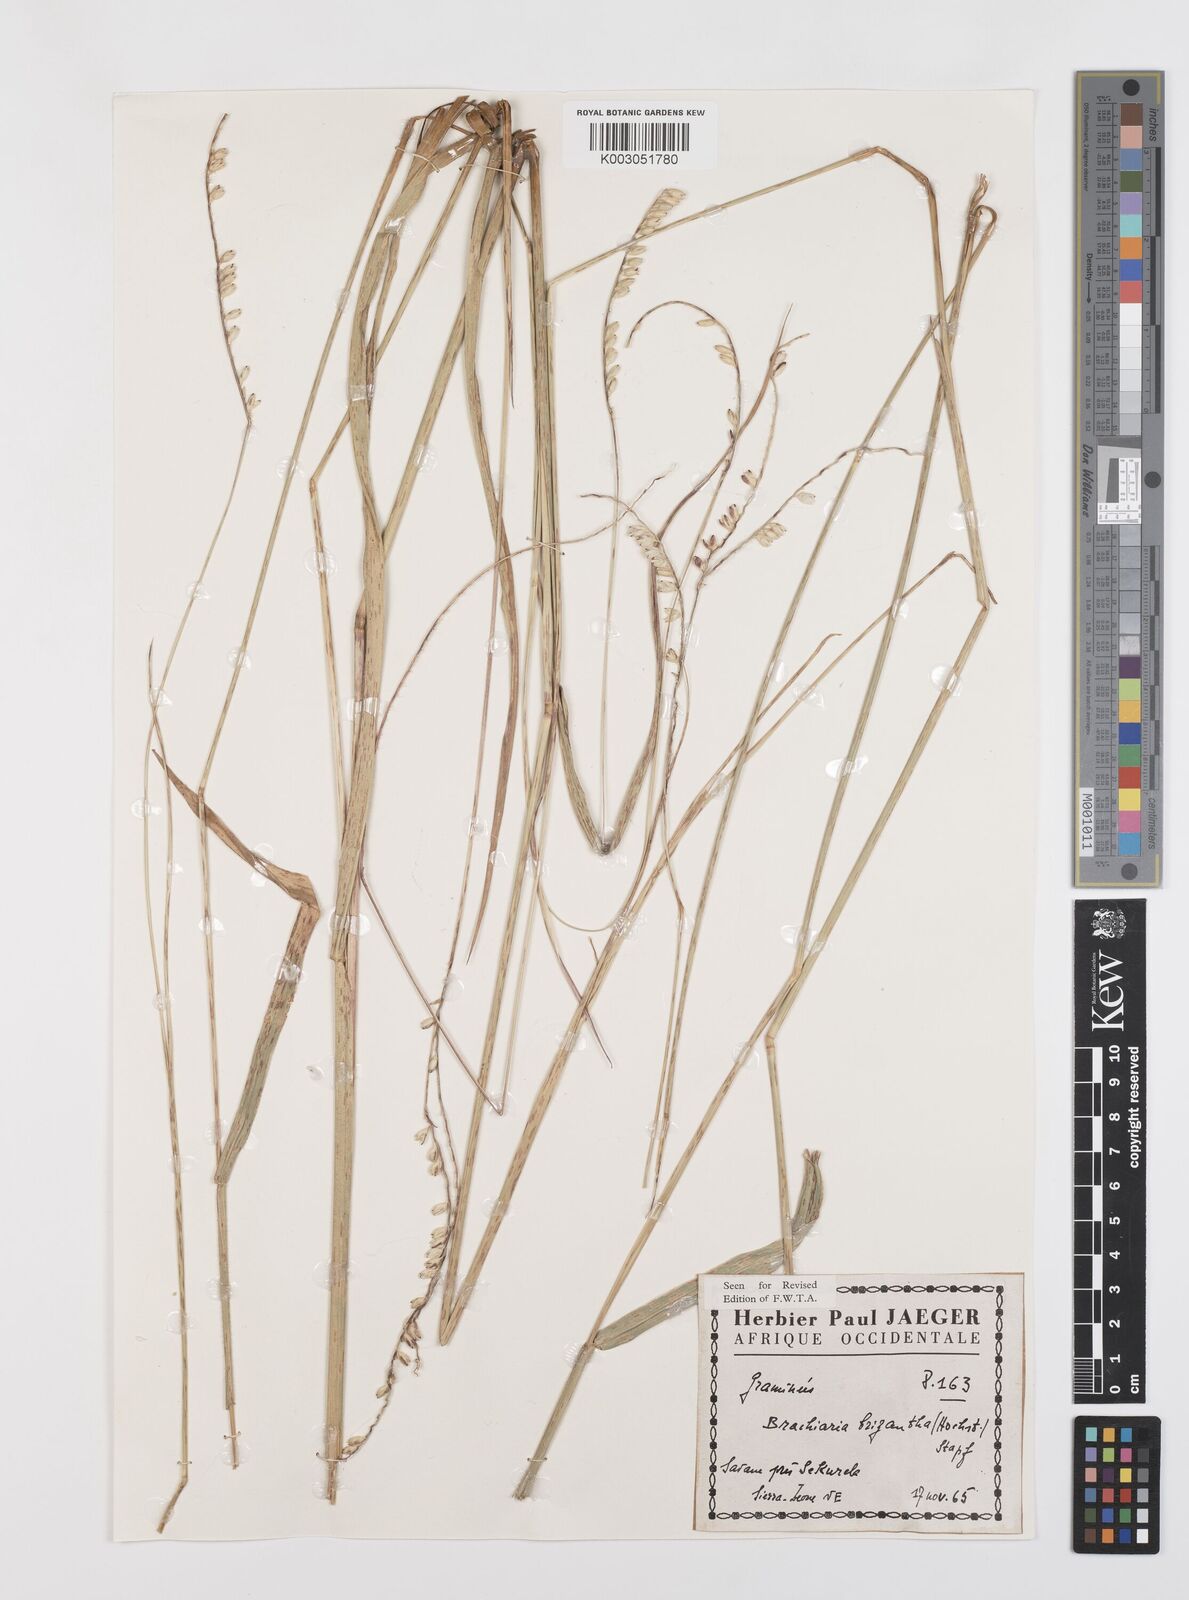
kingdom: Plantae
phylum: Tracheophyta
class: Liliopsida
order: Poales
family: Poaceae
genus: Urochloa
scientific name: Urochloa brizantha
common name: Palisade signalgrass
